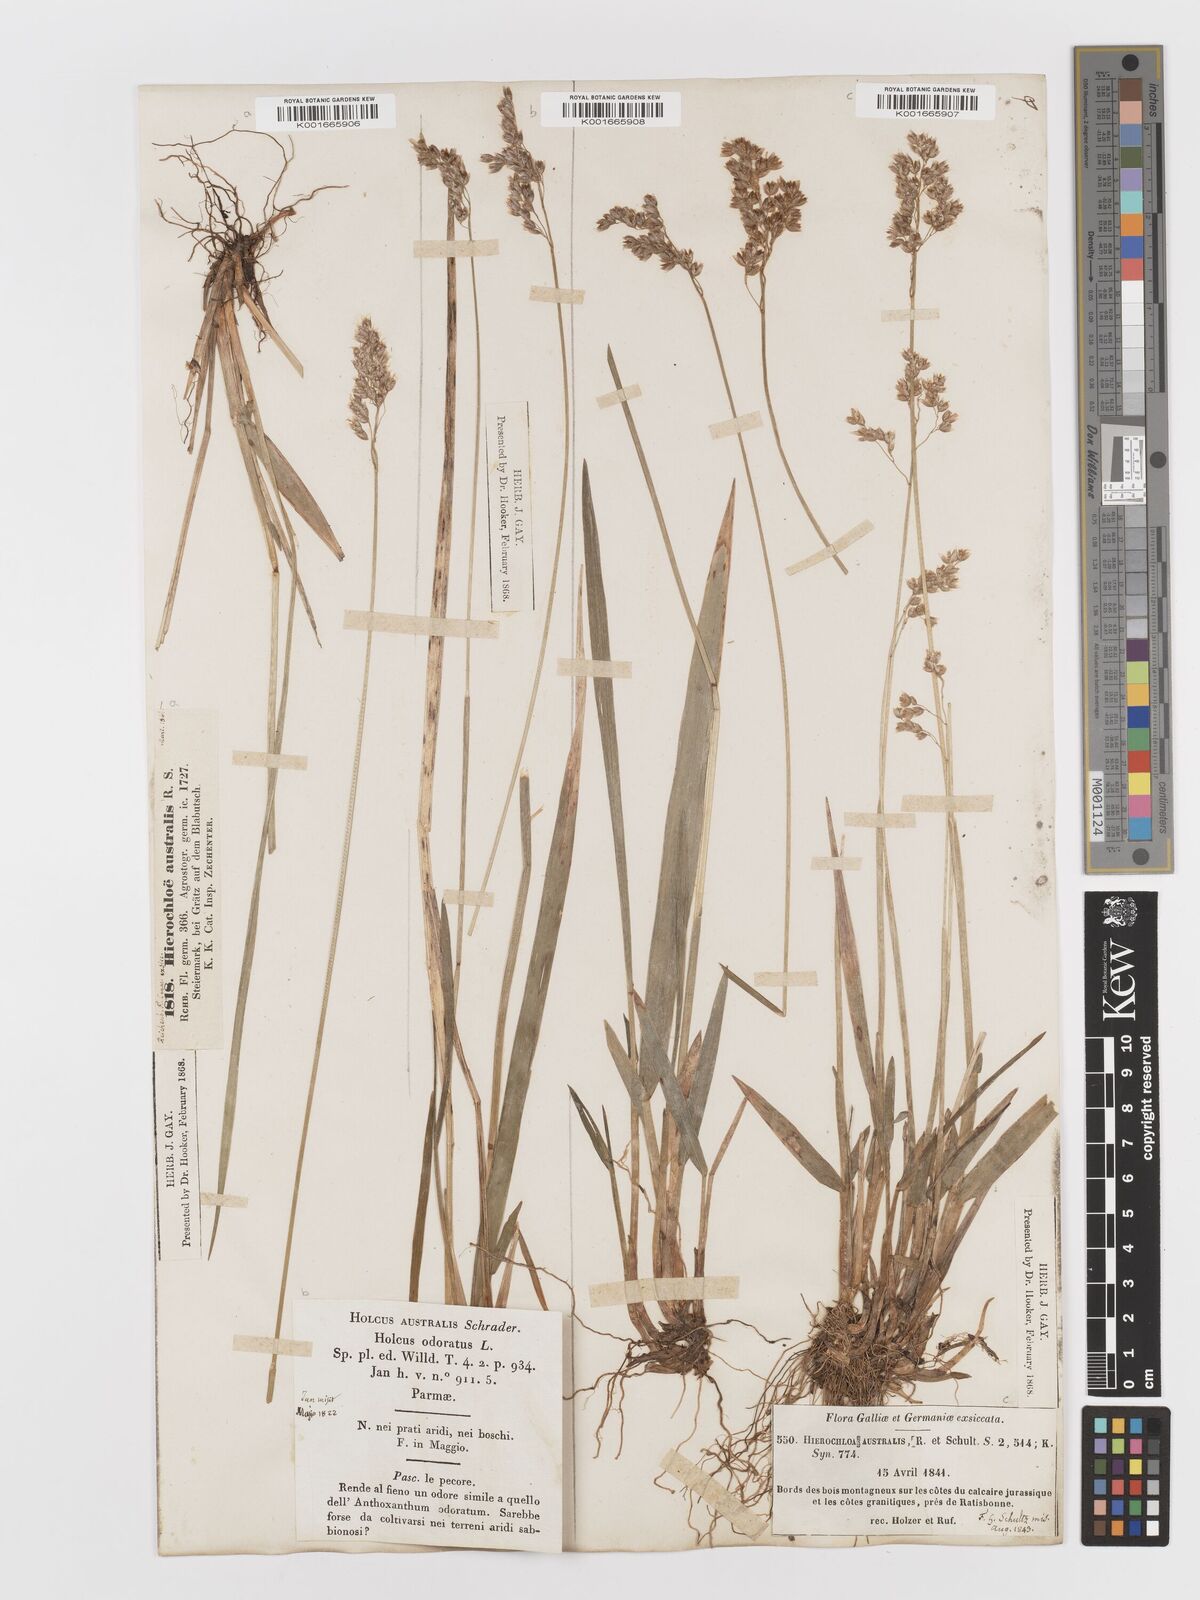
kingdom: Plantae
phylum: Tracheophyta
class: Liliopsida
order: Poales
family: Poaceae
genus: Anthoxanthum
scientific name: Anthoxanthum australe
